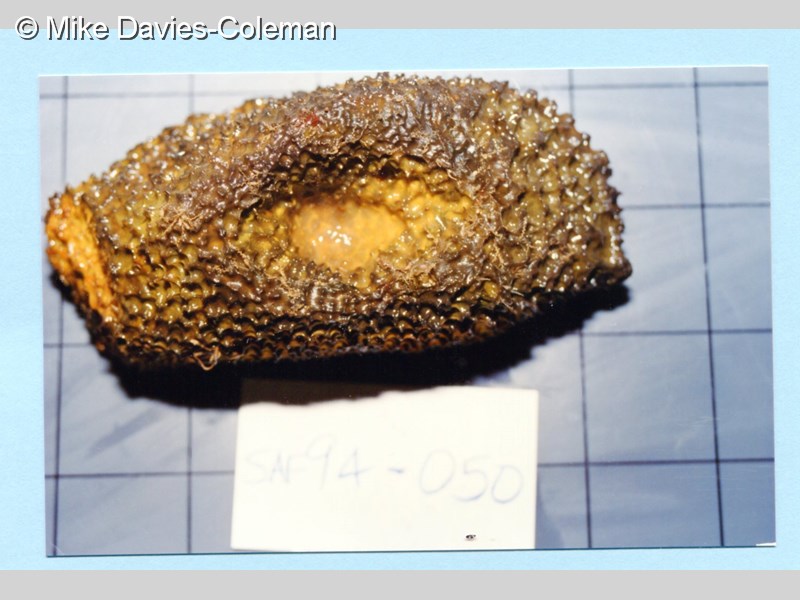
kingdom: Animalia
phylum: Porifera
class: Demospongiae
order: Dictyoceratida
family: Thorectidae
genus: Smenospongia
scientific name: Smenospongia
